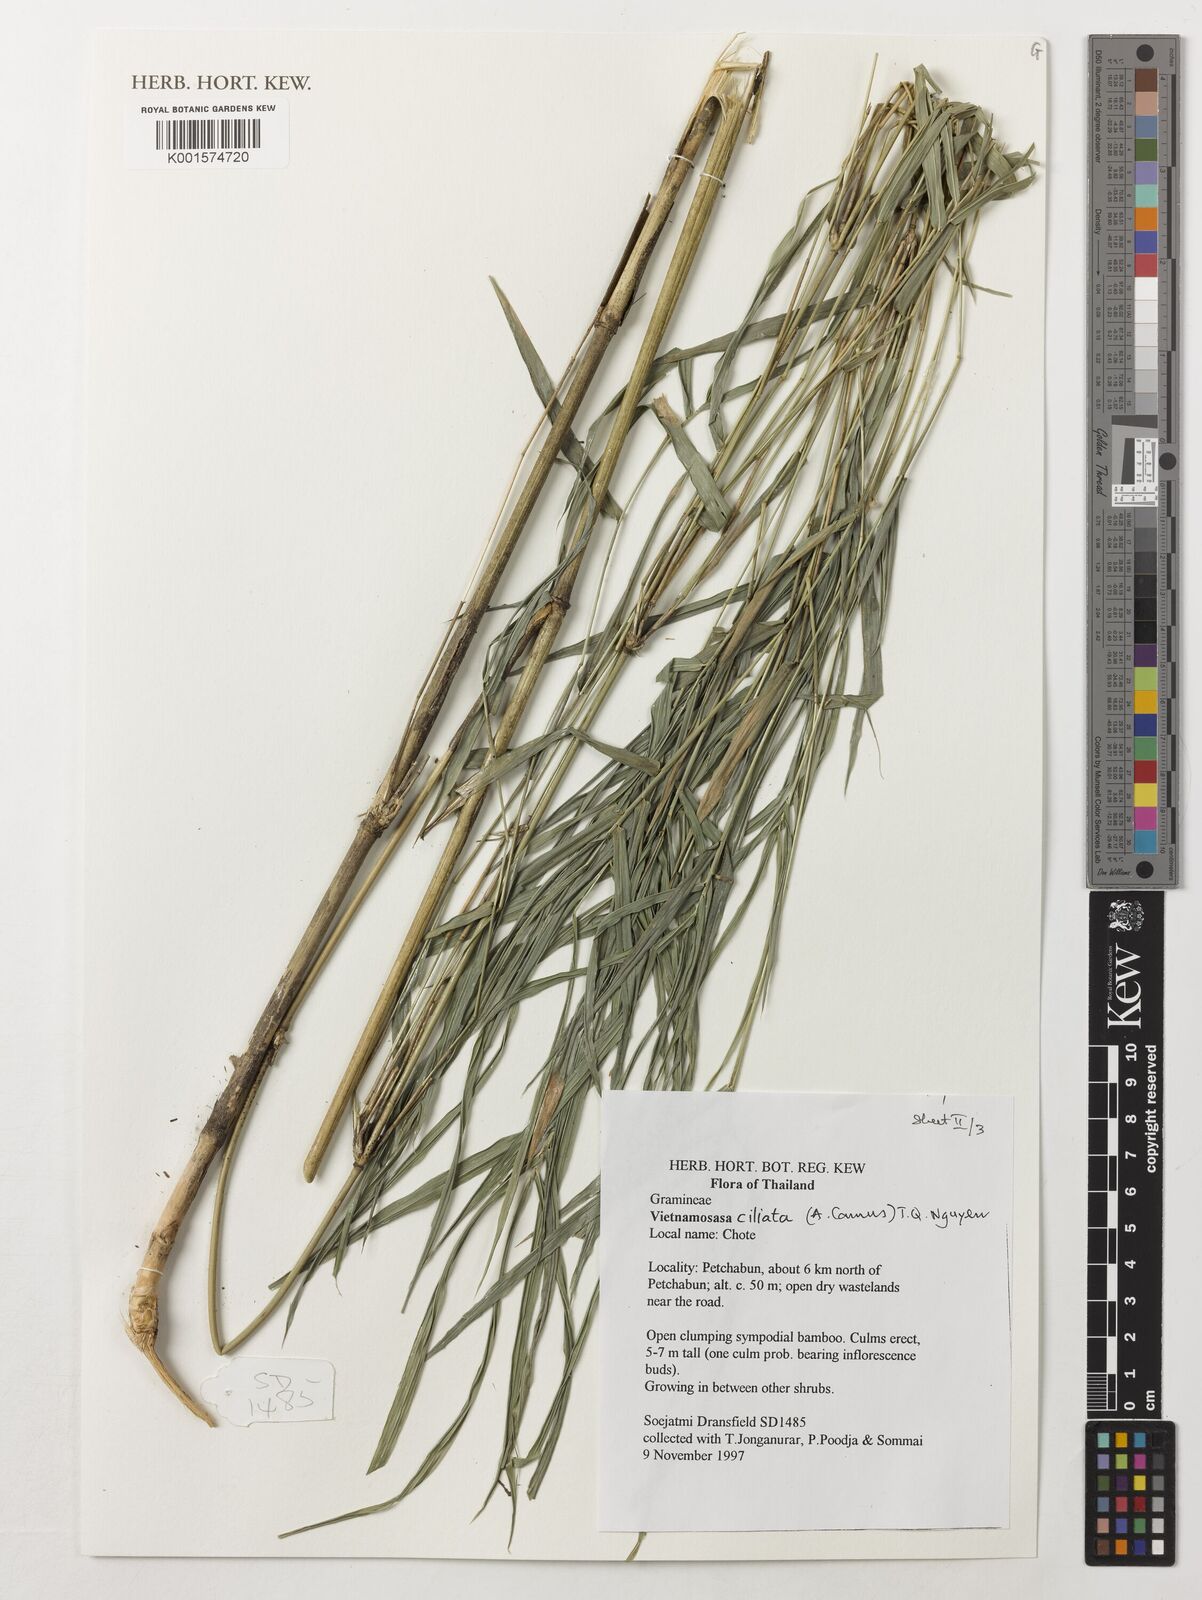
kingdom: Plantae
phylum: Tracheophyta
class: Liliopsida
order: Poales
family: Poaceae
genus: Vietnamosasa
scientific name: Vietnamosasa ciliata
